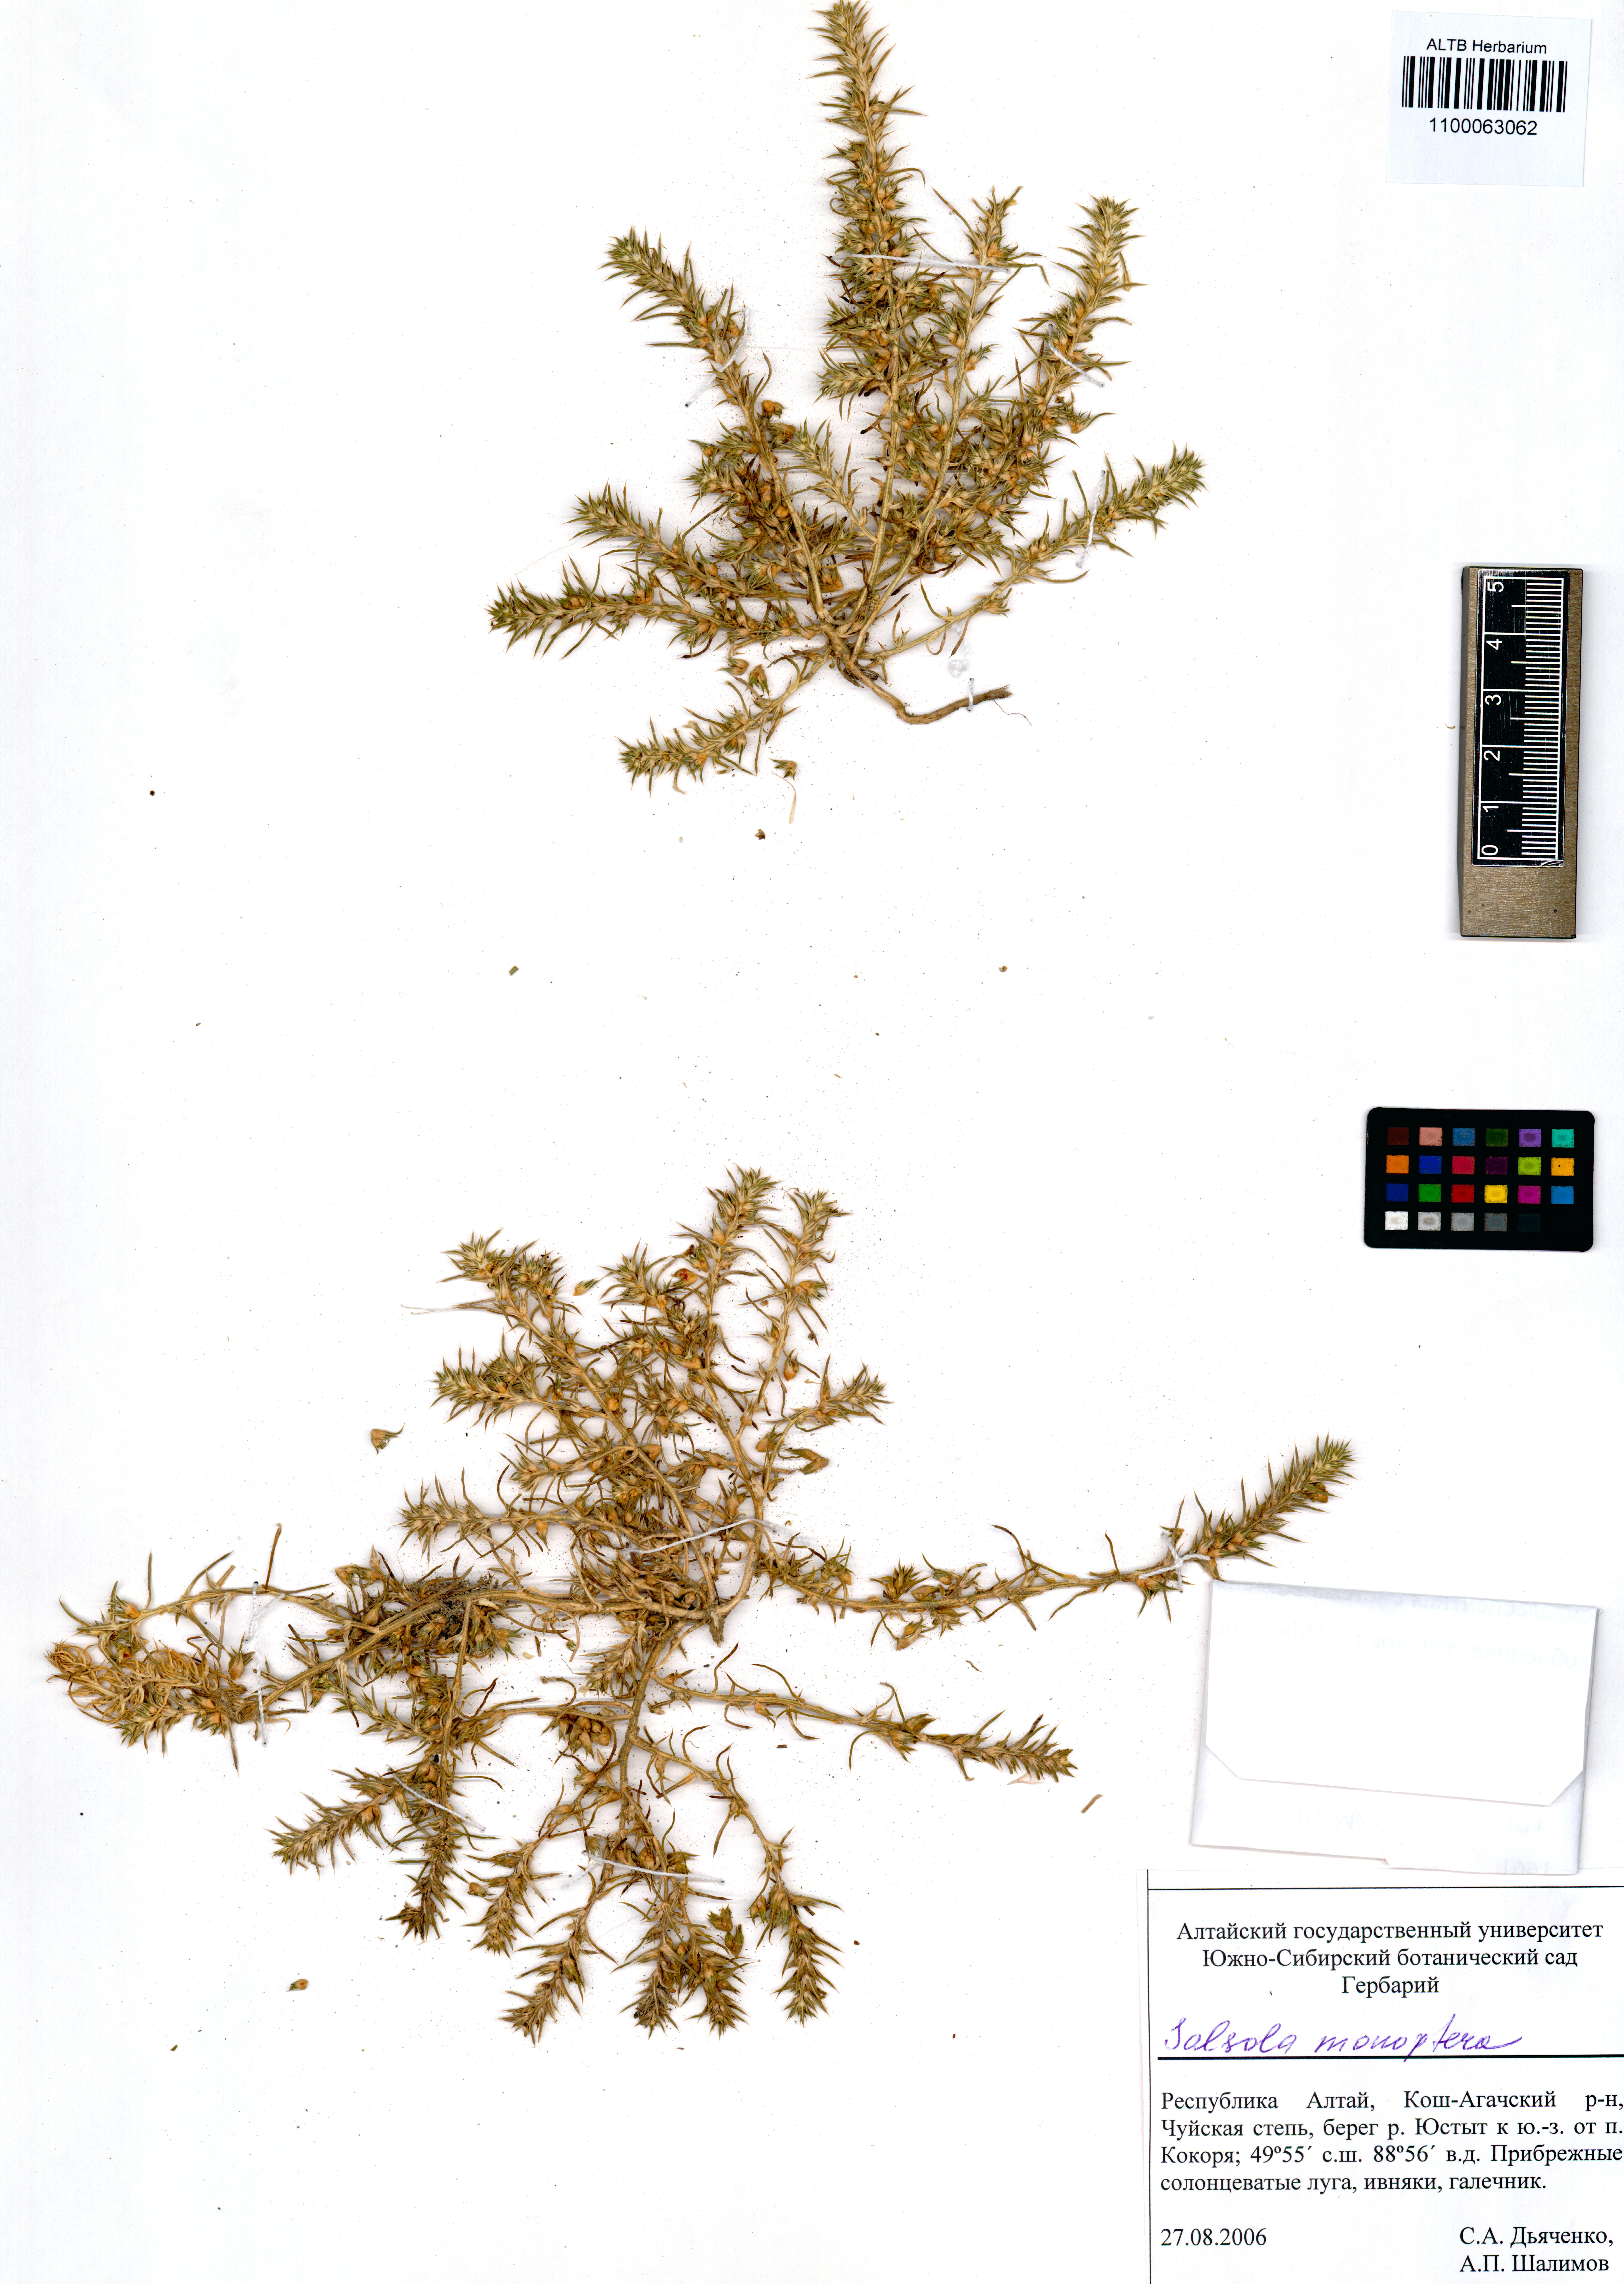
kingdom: Plantae
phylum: Tracheophyta
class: Magnoliopsida
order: Caryophyllales
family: Amaranthaceae
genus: Salsola
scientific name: Salsola monoptera
